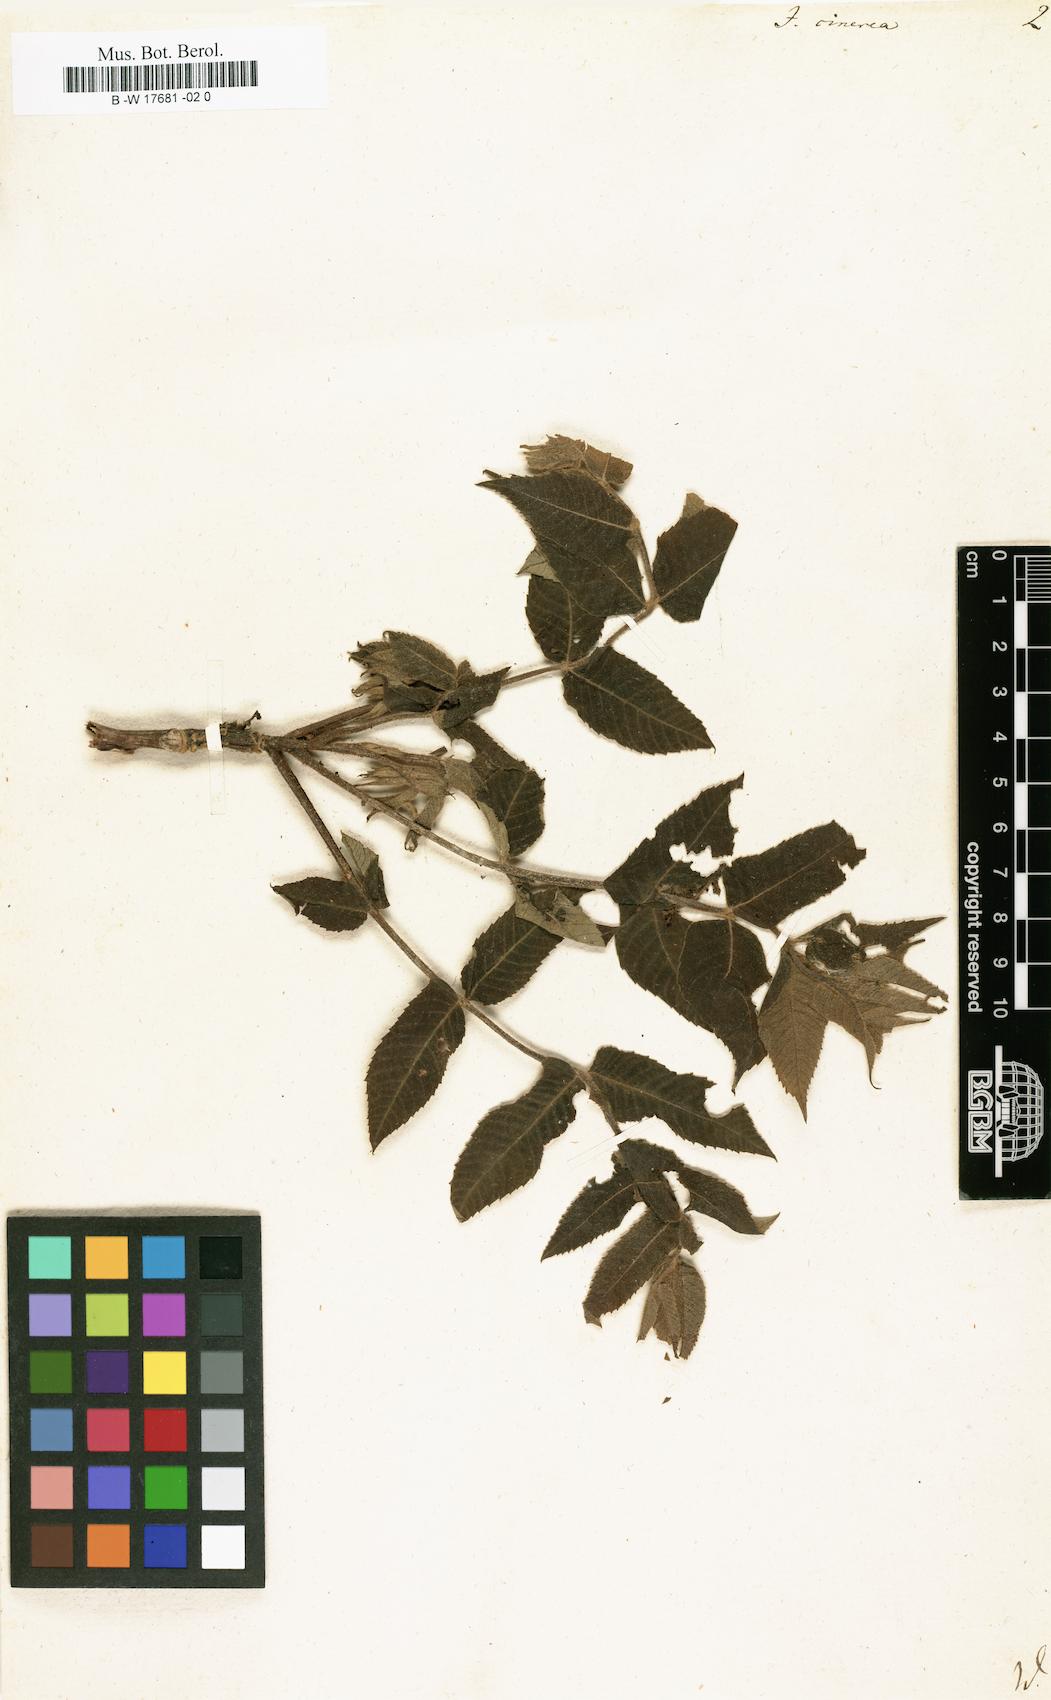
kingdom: Plantae
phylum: Tracheophyta
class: Magnoliopsida
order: Fagales
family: Juglandaceae
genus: Juglans
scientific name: Juglans cinerea
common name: Butternut
